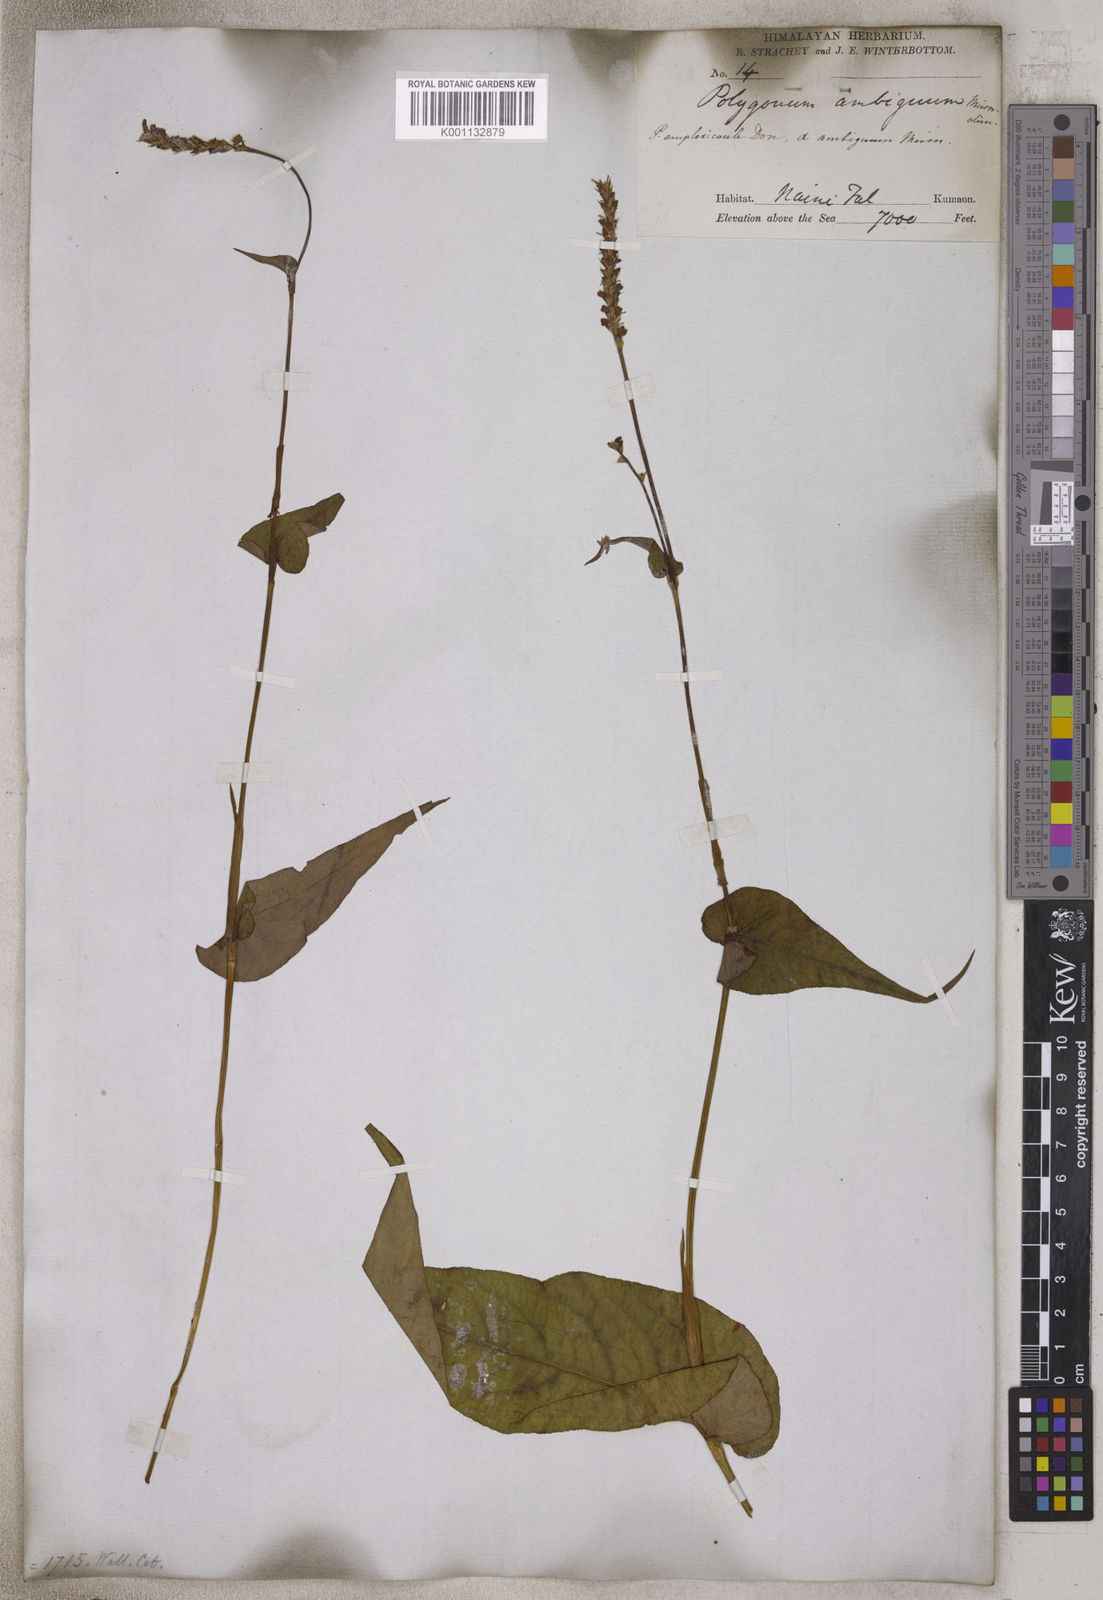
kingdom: Plantae
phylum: Tracheophyta
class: Magnoliopsida
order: Caryophyllales
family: Polygonaceae
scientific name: Polygonaceae
